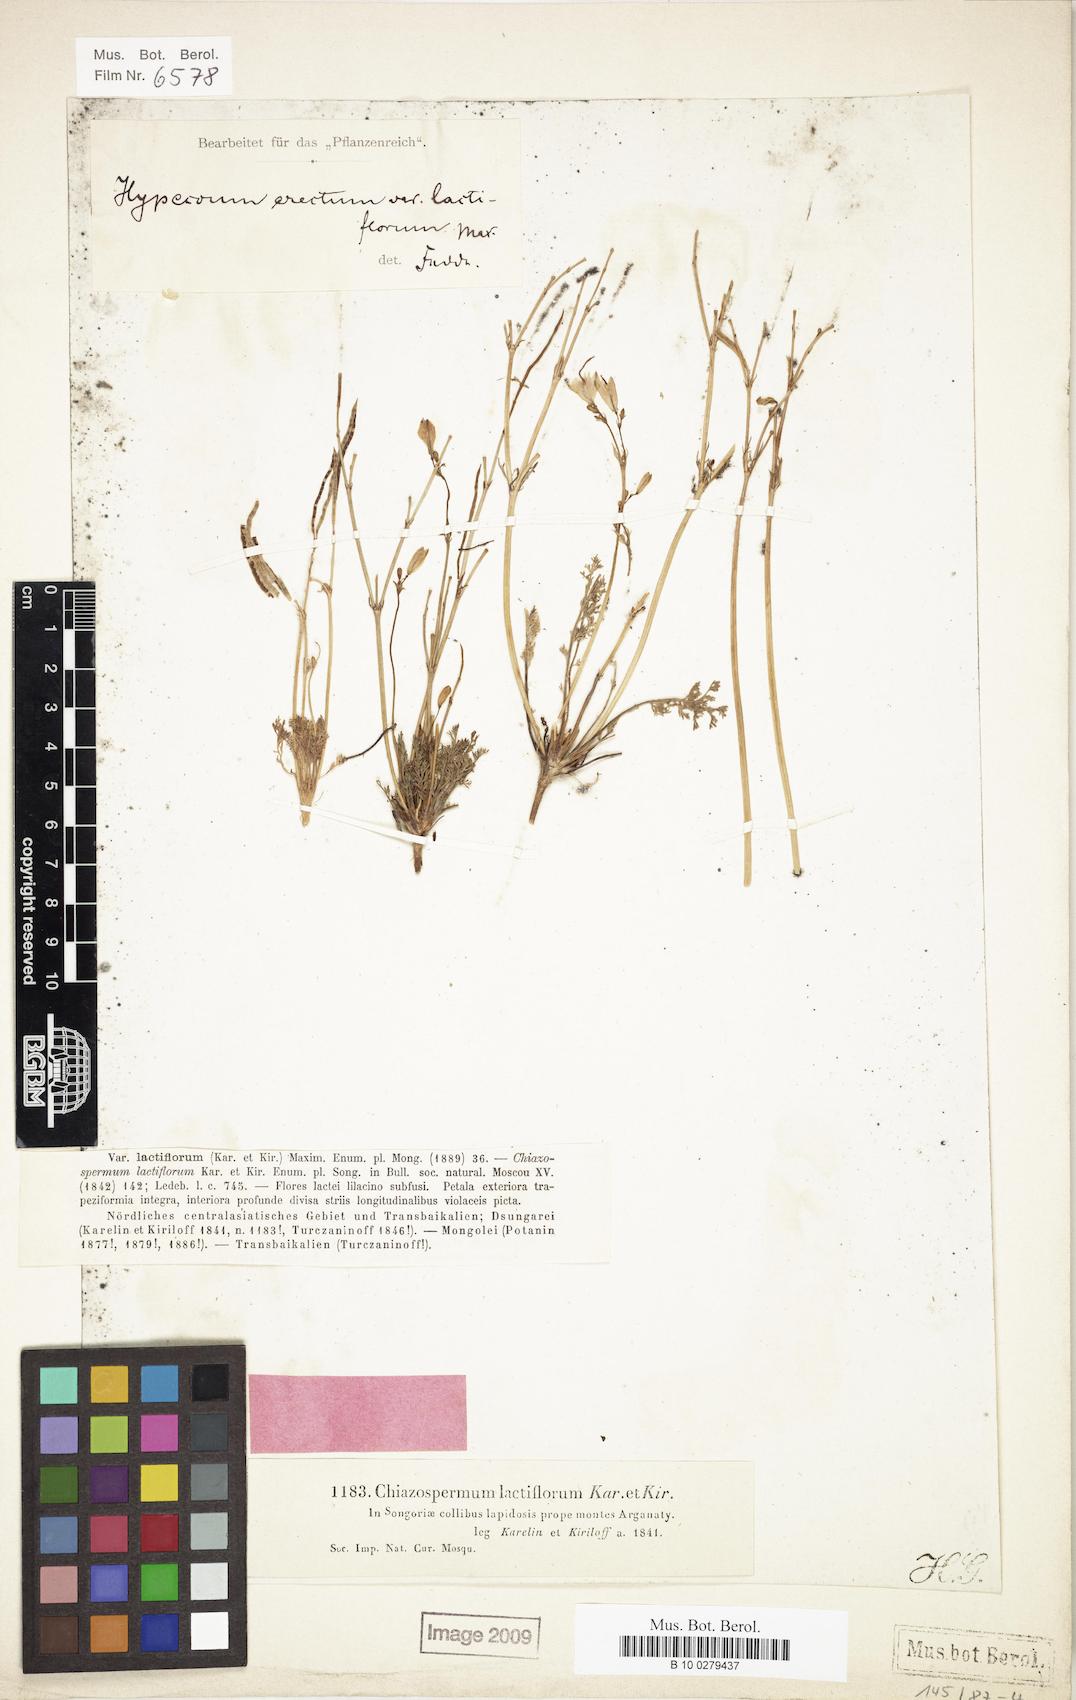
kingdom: Plantae
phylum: Tracheophyta
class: Magnoliopsida
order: Ranunculales
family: Papaveraceae
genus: Hypecoum
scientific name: Hypecoum lactiflorum
